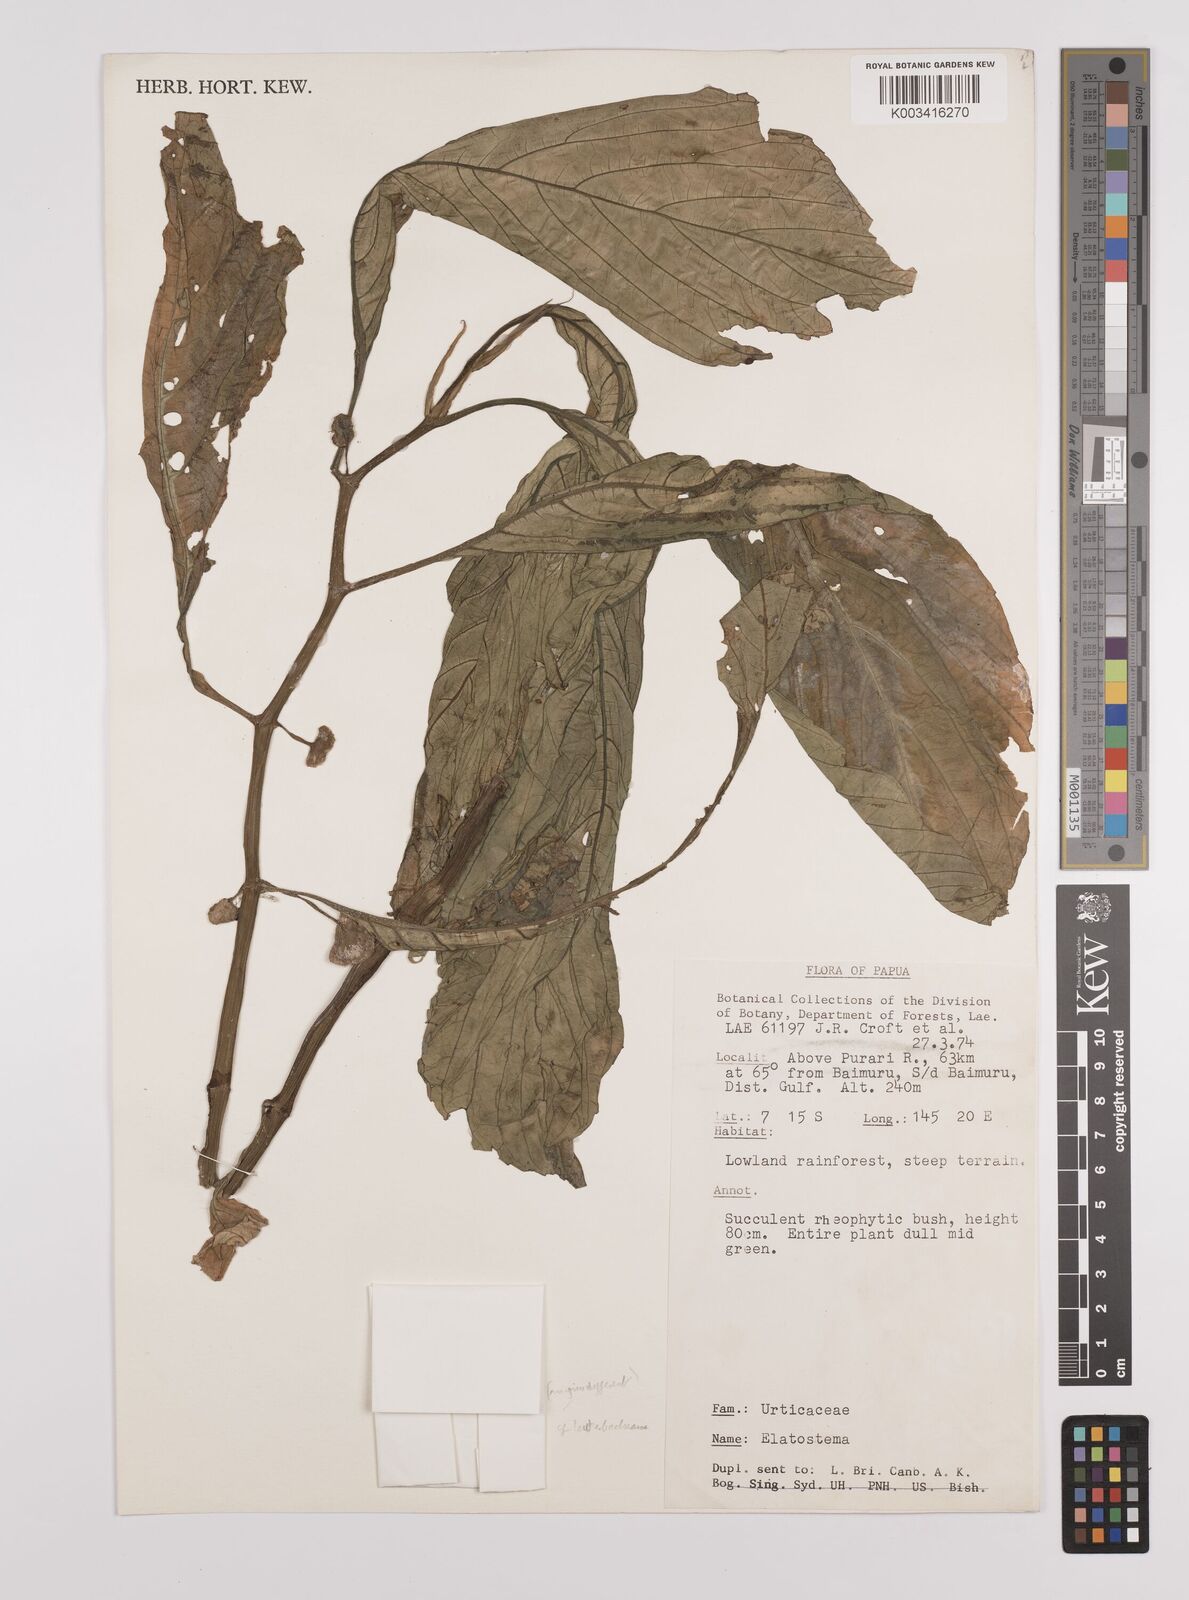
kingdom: Plantae
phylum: Tracheophyta
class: Magnoliopsida
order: Rosales
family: Urticaceae
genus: Elatostema
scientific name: Elatostema lauterbachii
